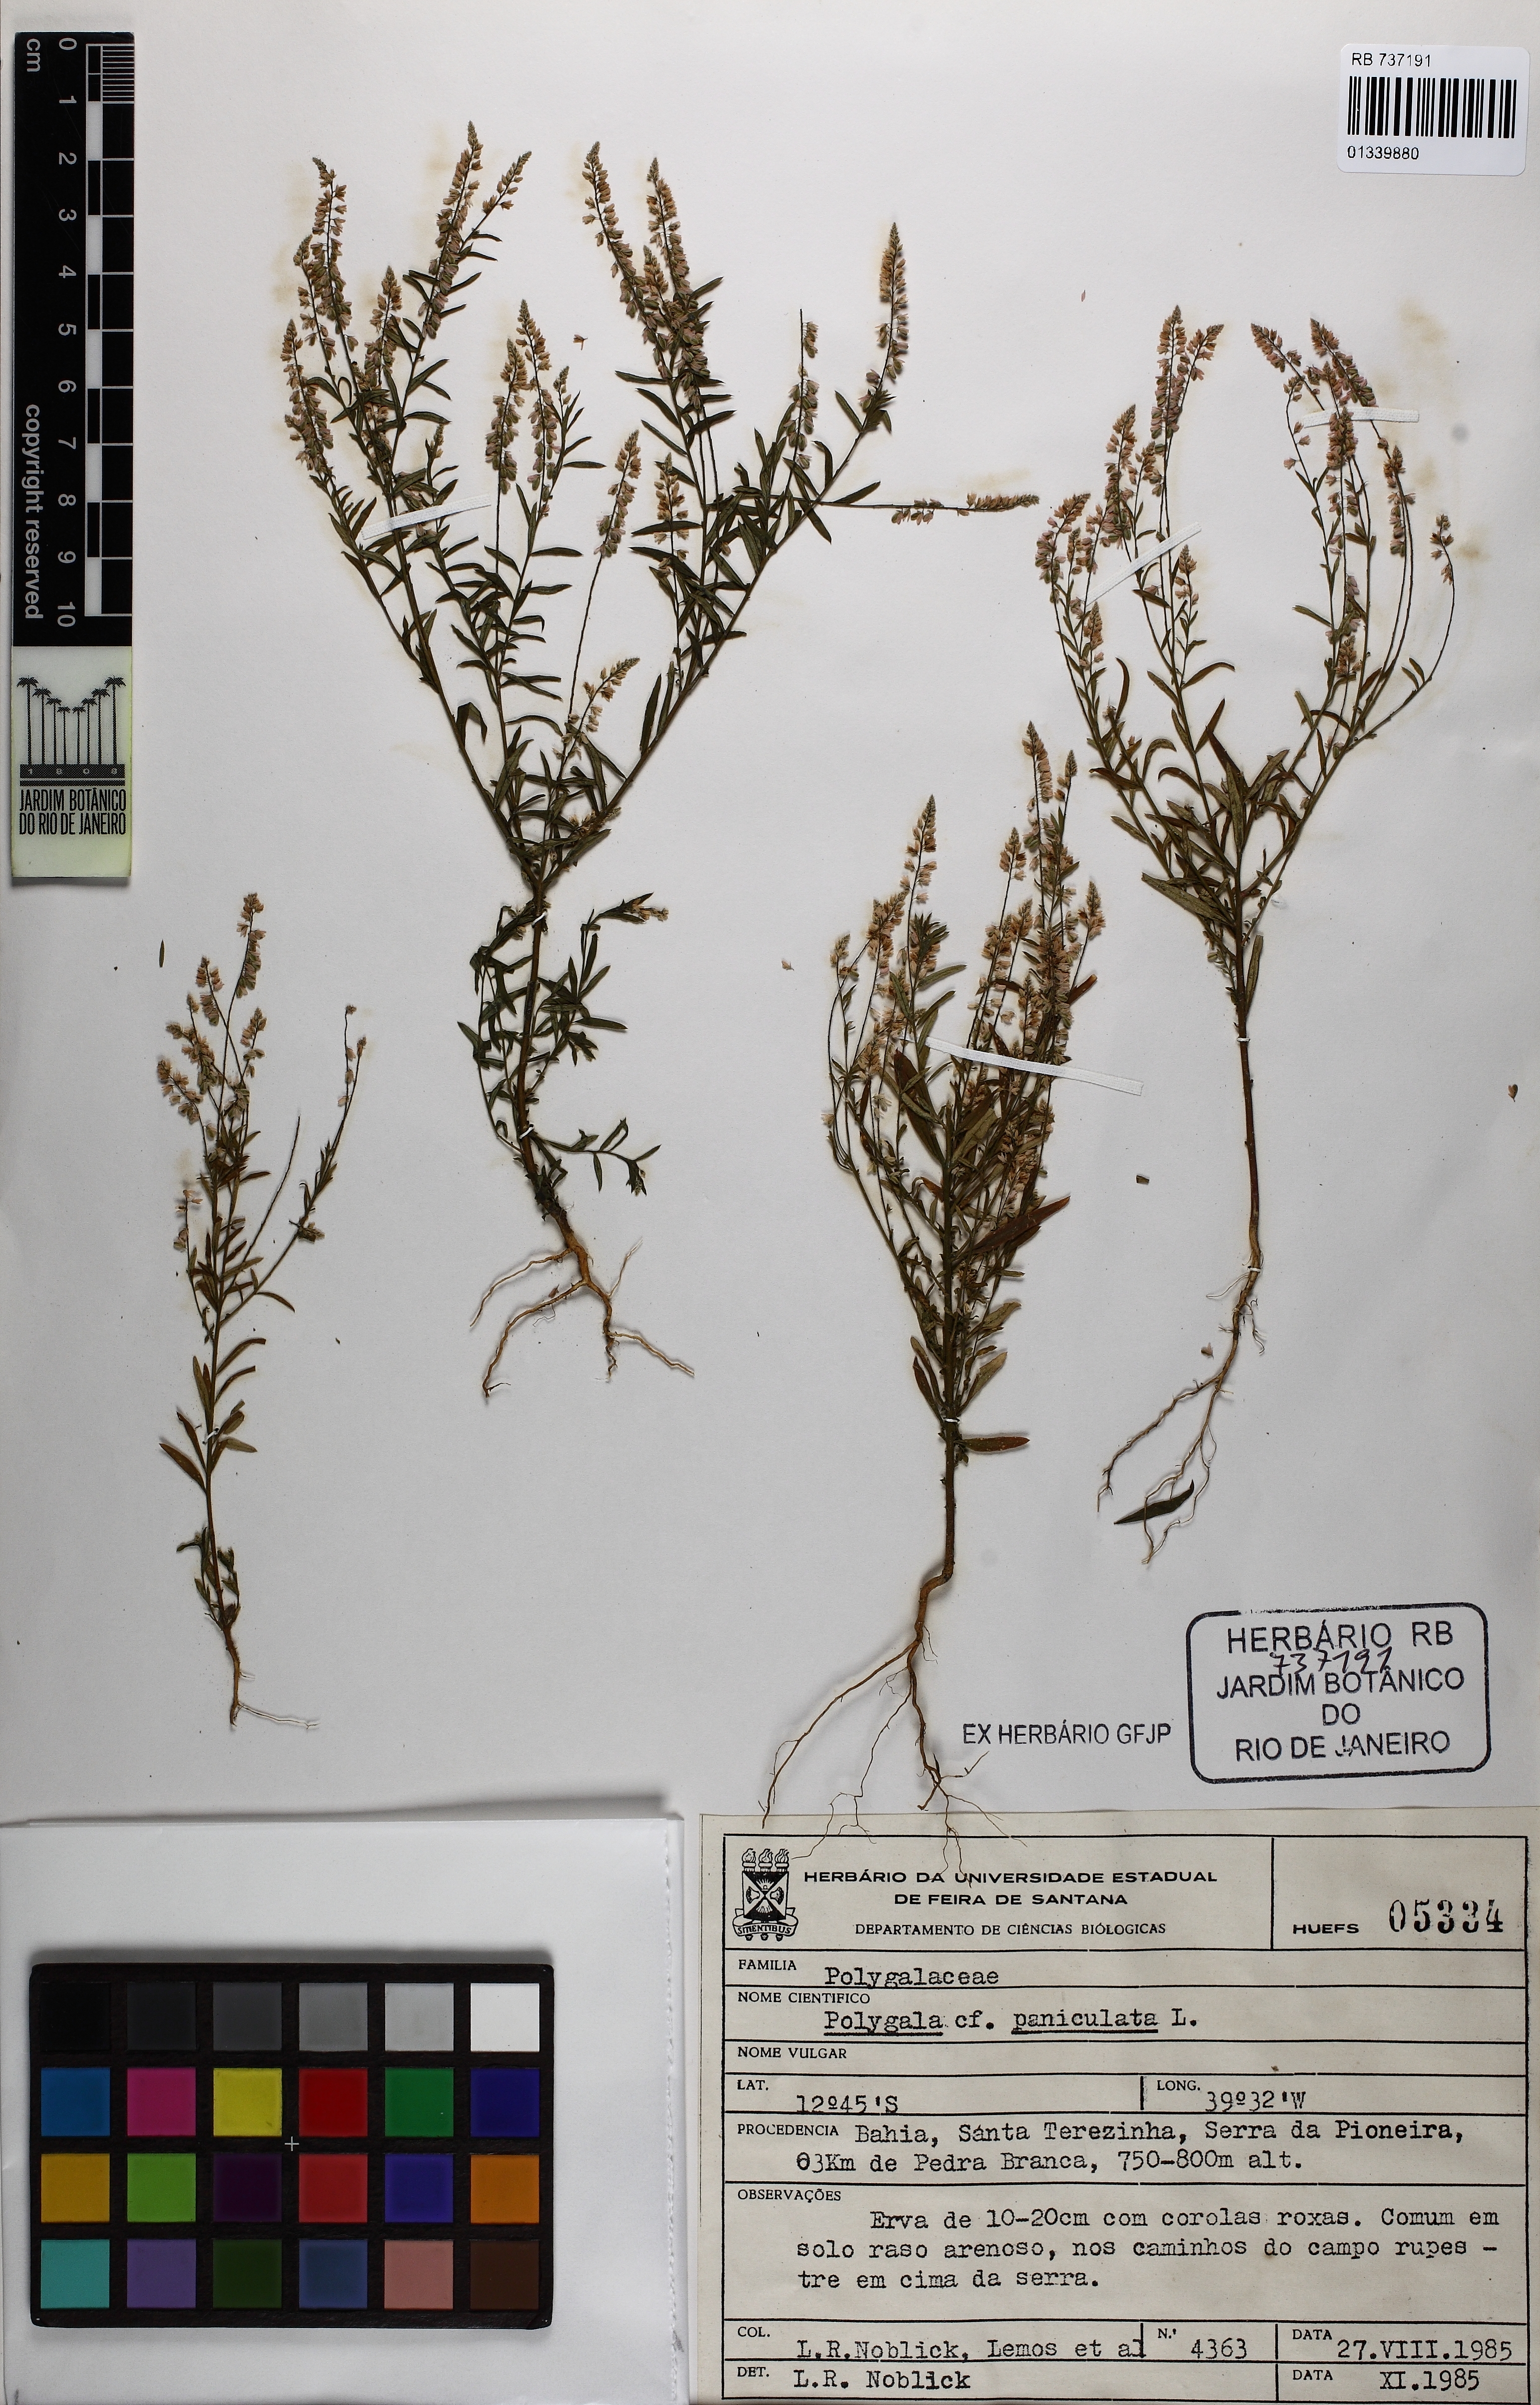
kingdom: Plantae
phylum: Tracheophyta
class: Magnoliopsida
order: Fabales
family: Polygalaceae
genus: Polygala
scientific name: Polygala paniculata
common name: Orosne
